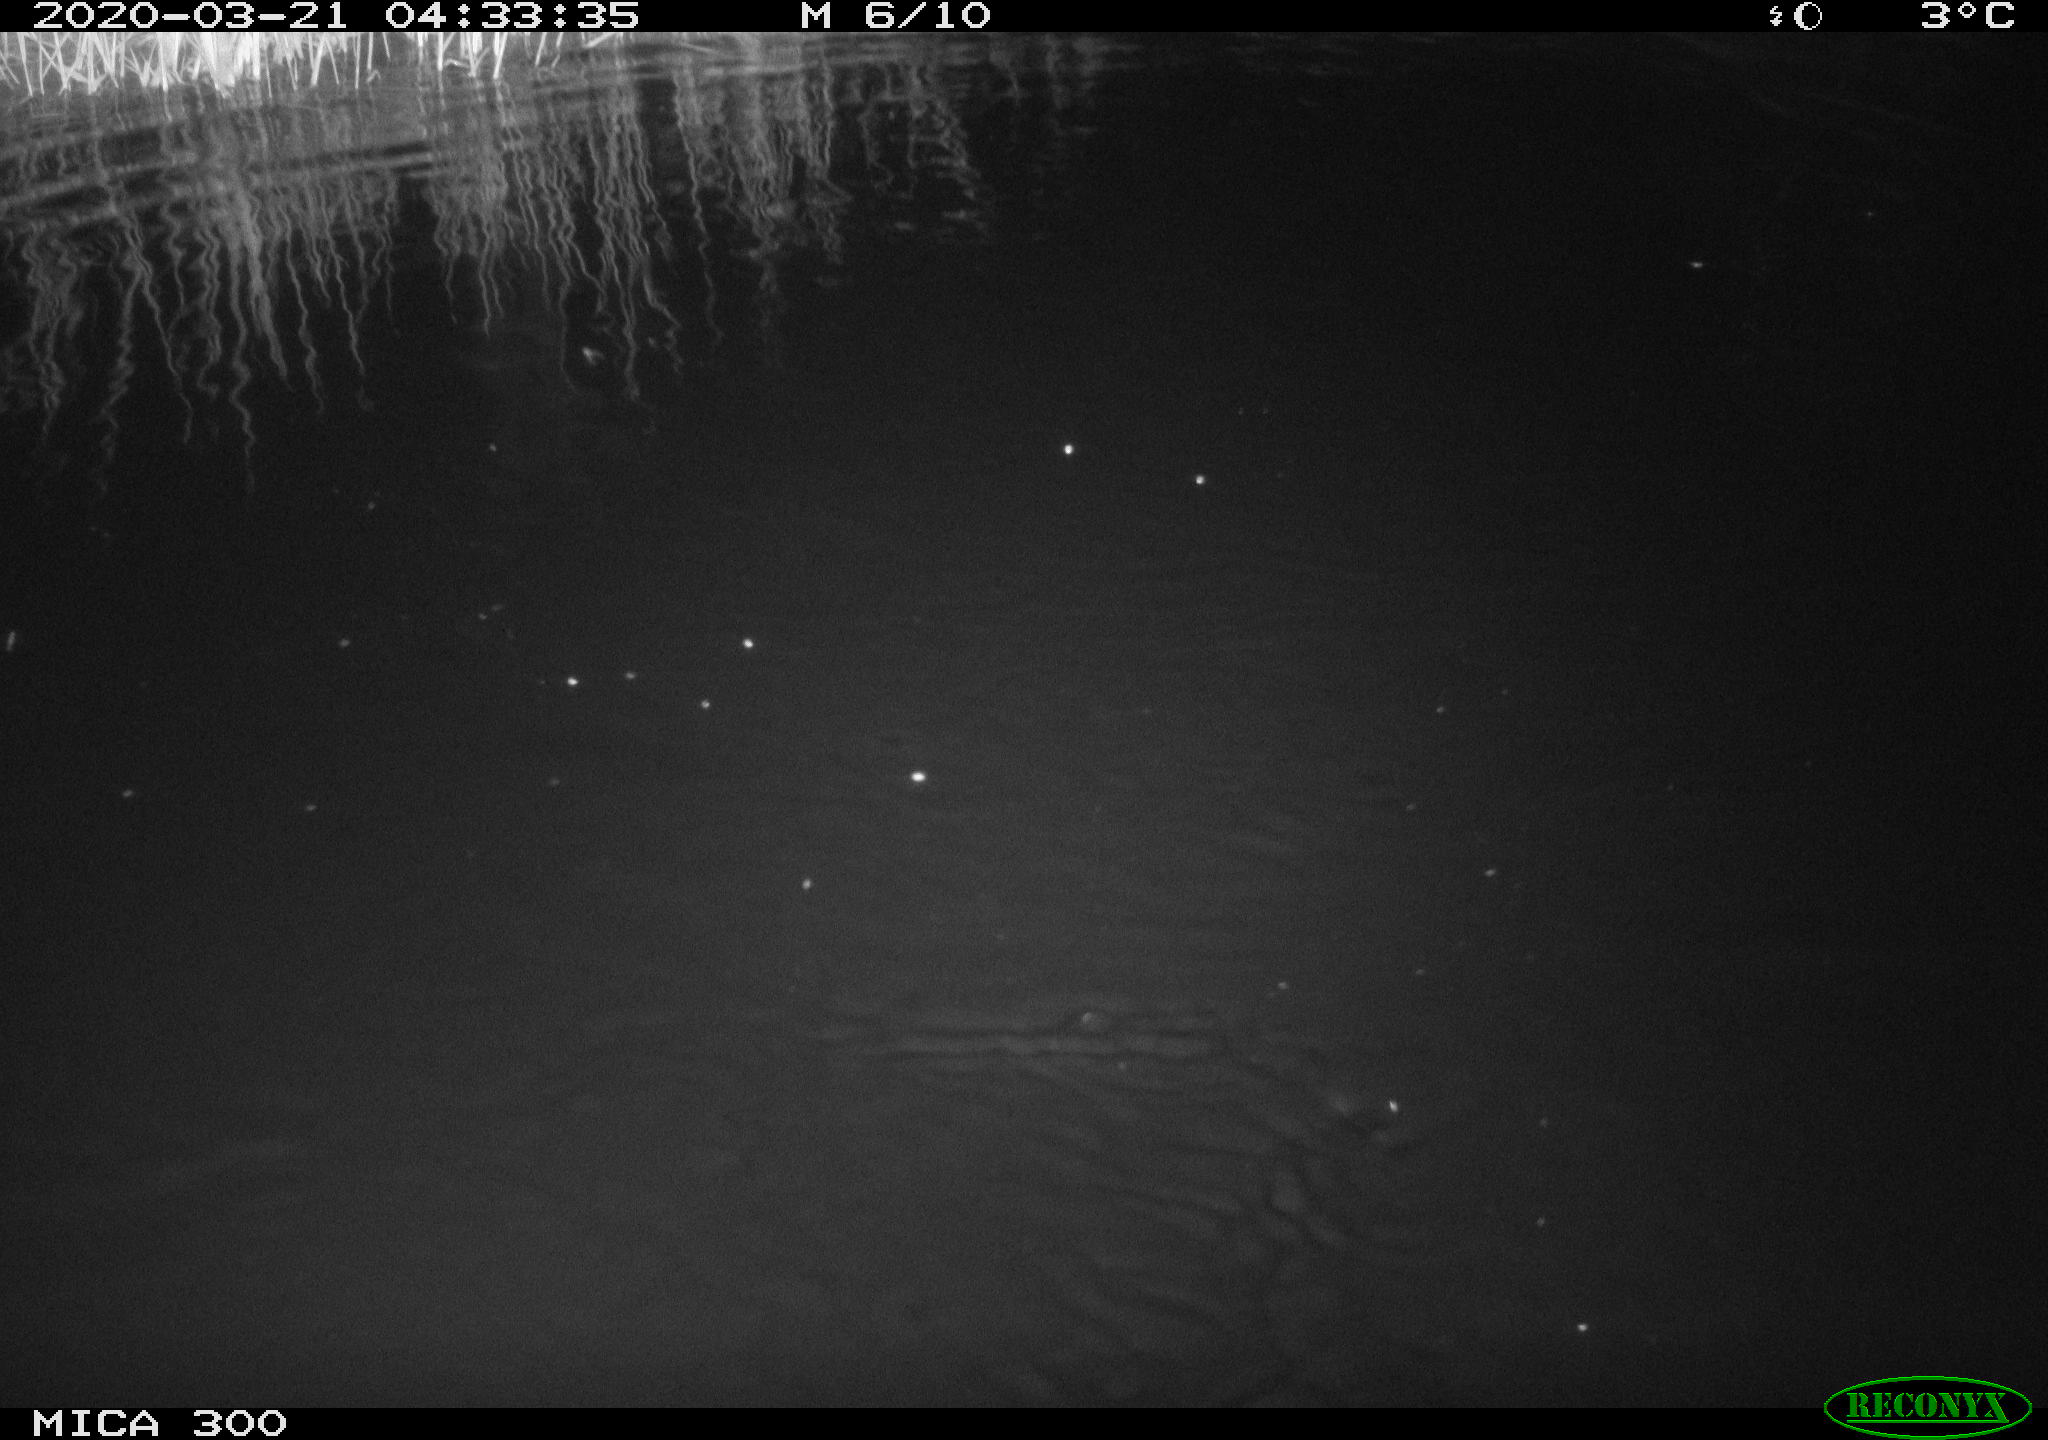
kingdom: Animalia
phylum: Chordata
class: Mammalia
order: Rodentia
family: Castoridae
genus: Castor
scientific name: Castor fiber
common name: Eurasian beaver
